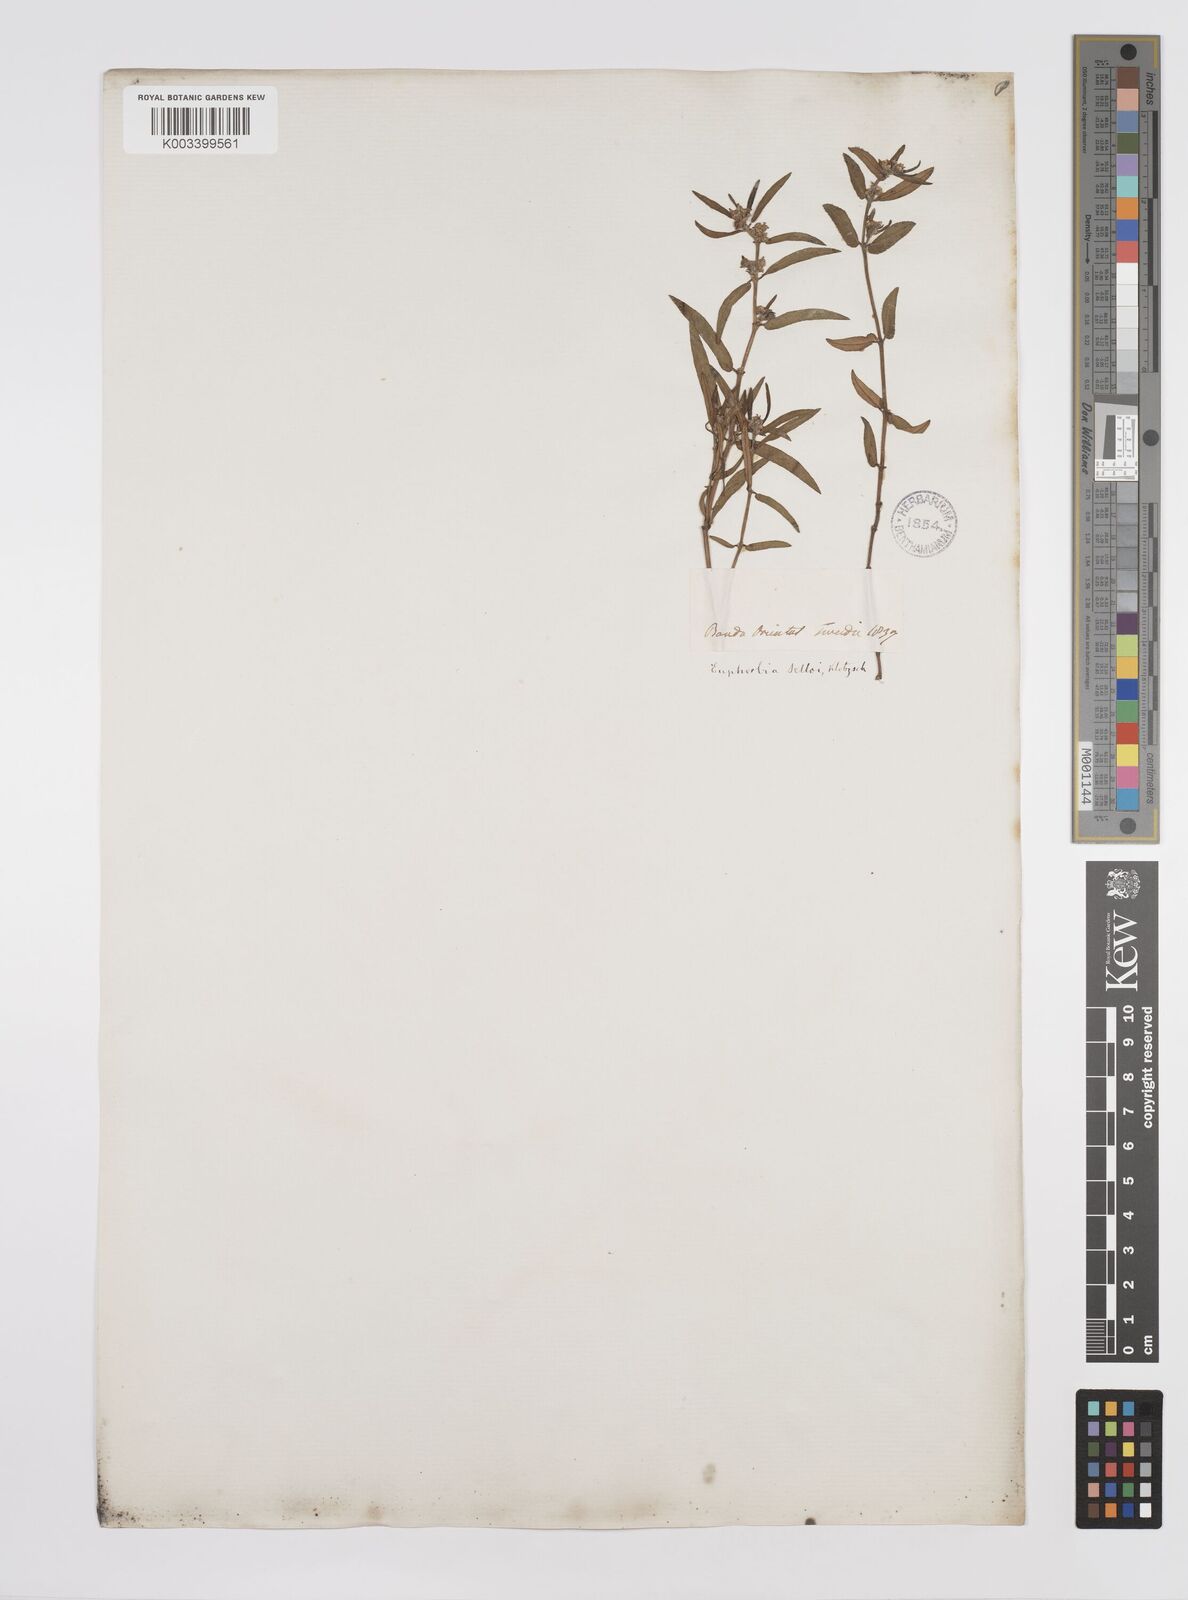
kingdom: Plantae
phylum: Tracheophyta
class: Magnoliopsida
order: Malpighiales
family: Euphorbiaceae
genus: Euphorbia
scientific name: Euphorbia selloi
